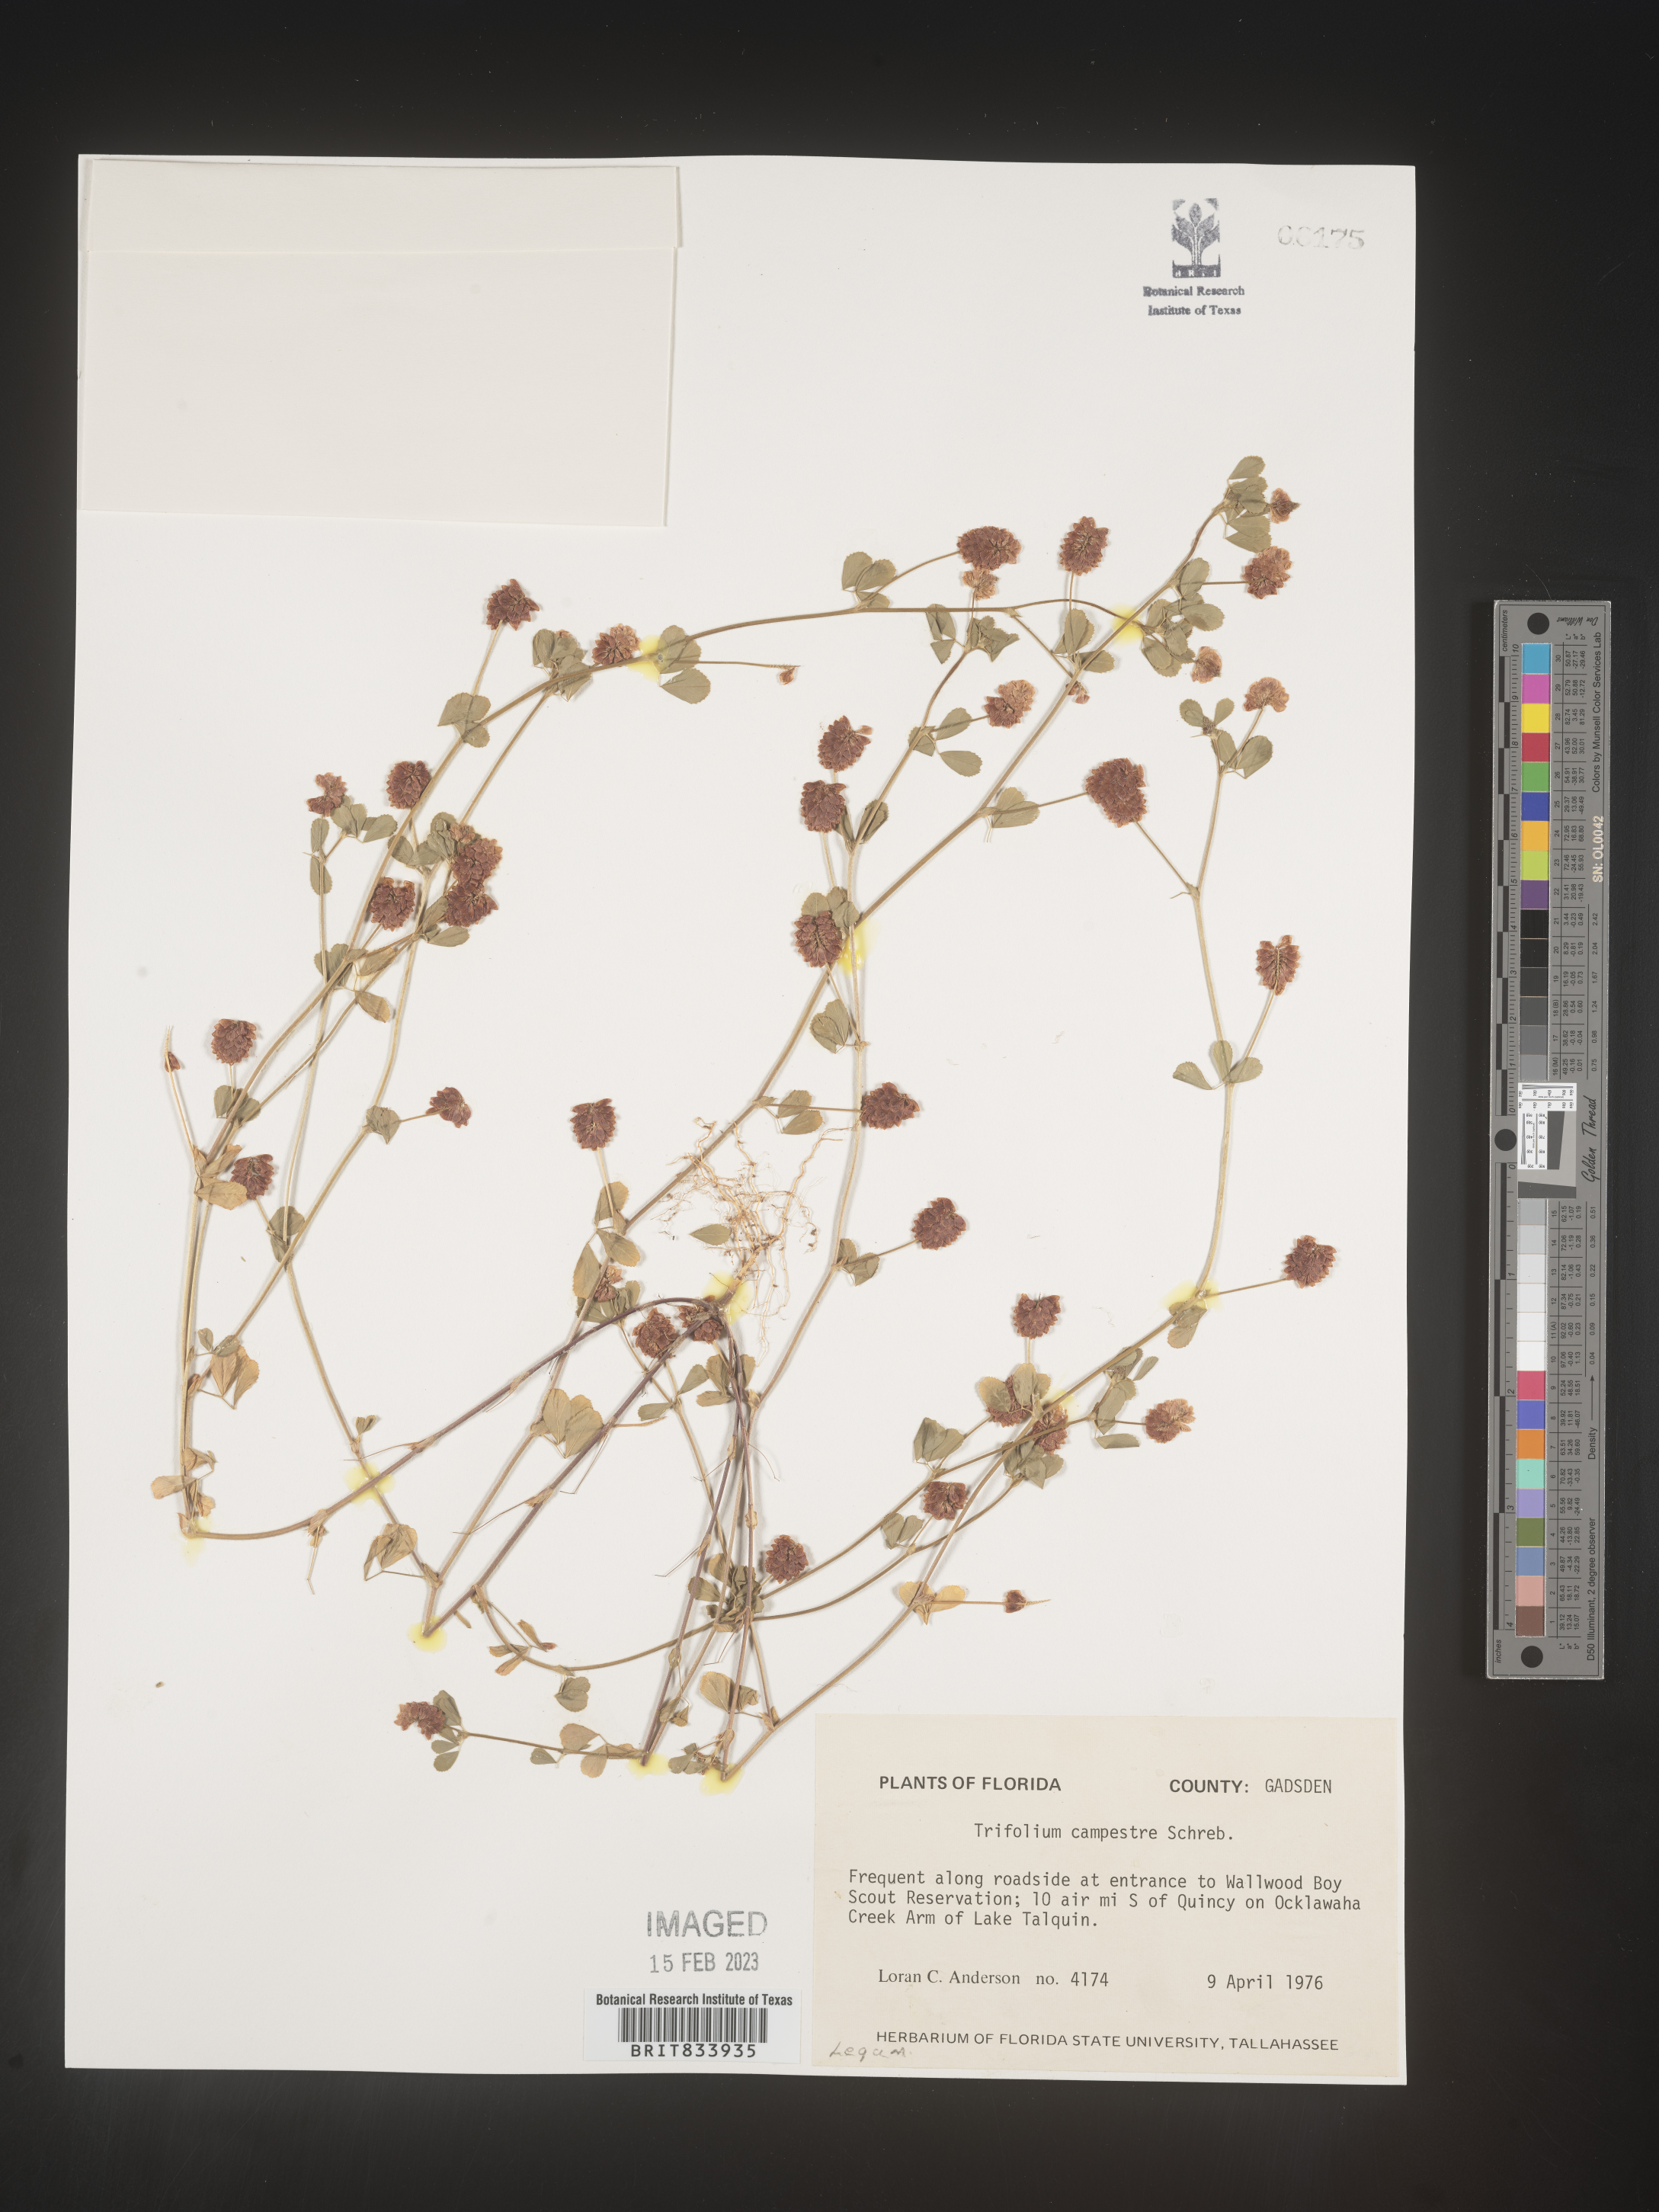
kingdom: Plantae
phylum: Tracheophyta
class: Magnoliopsida
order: Fabales
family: Fabaceae
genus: Trifolium
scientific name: Trifolium campestre
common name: Field clover
